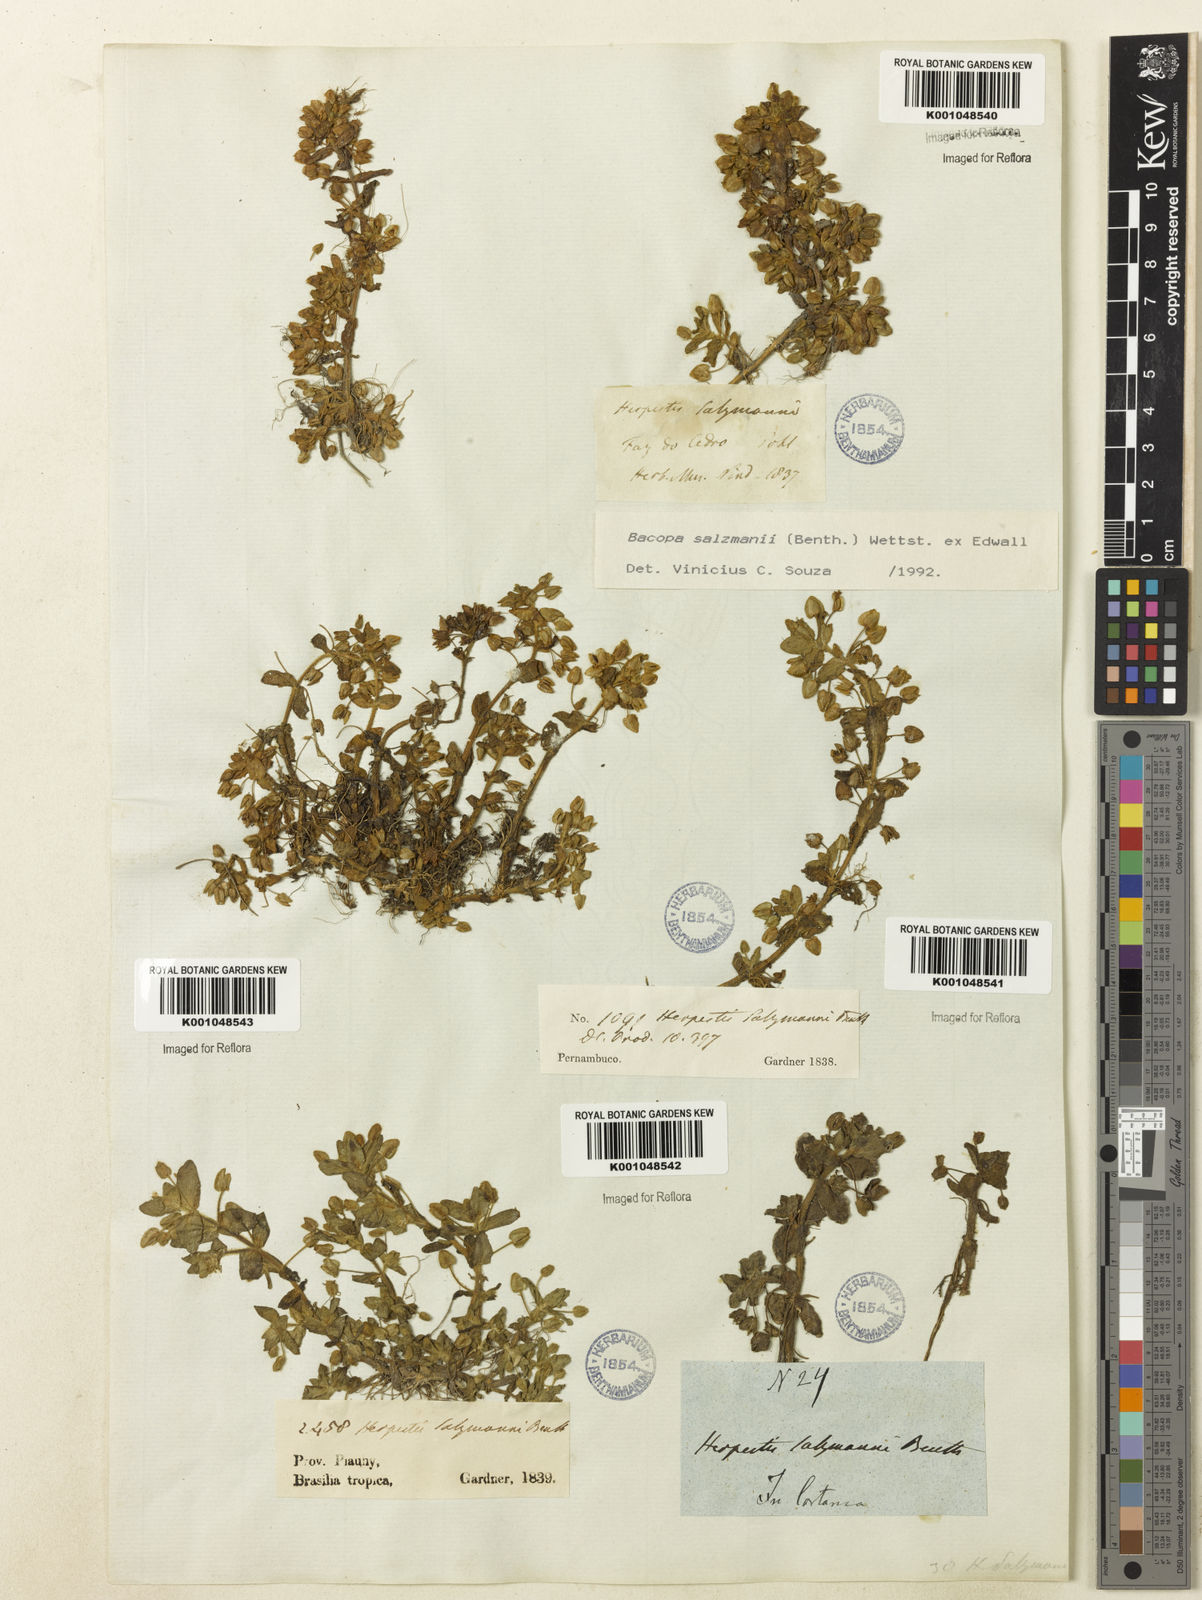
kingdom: Plantae
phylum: Tracheophyta
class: Magnoliopsida
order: Lamiales
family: Plantaginaceae
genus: Bacopa
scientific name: Bacopa salzmannii
